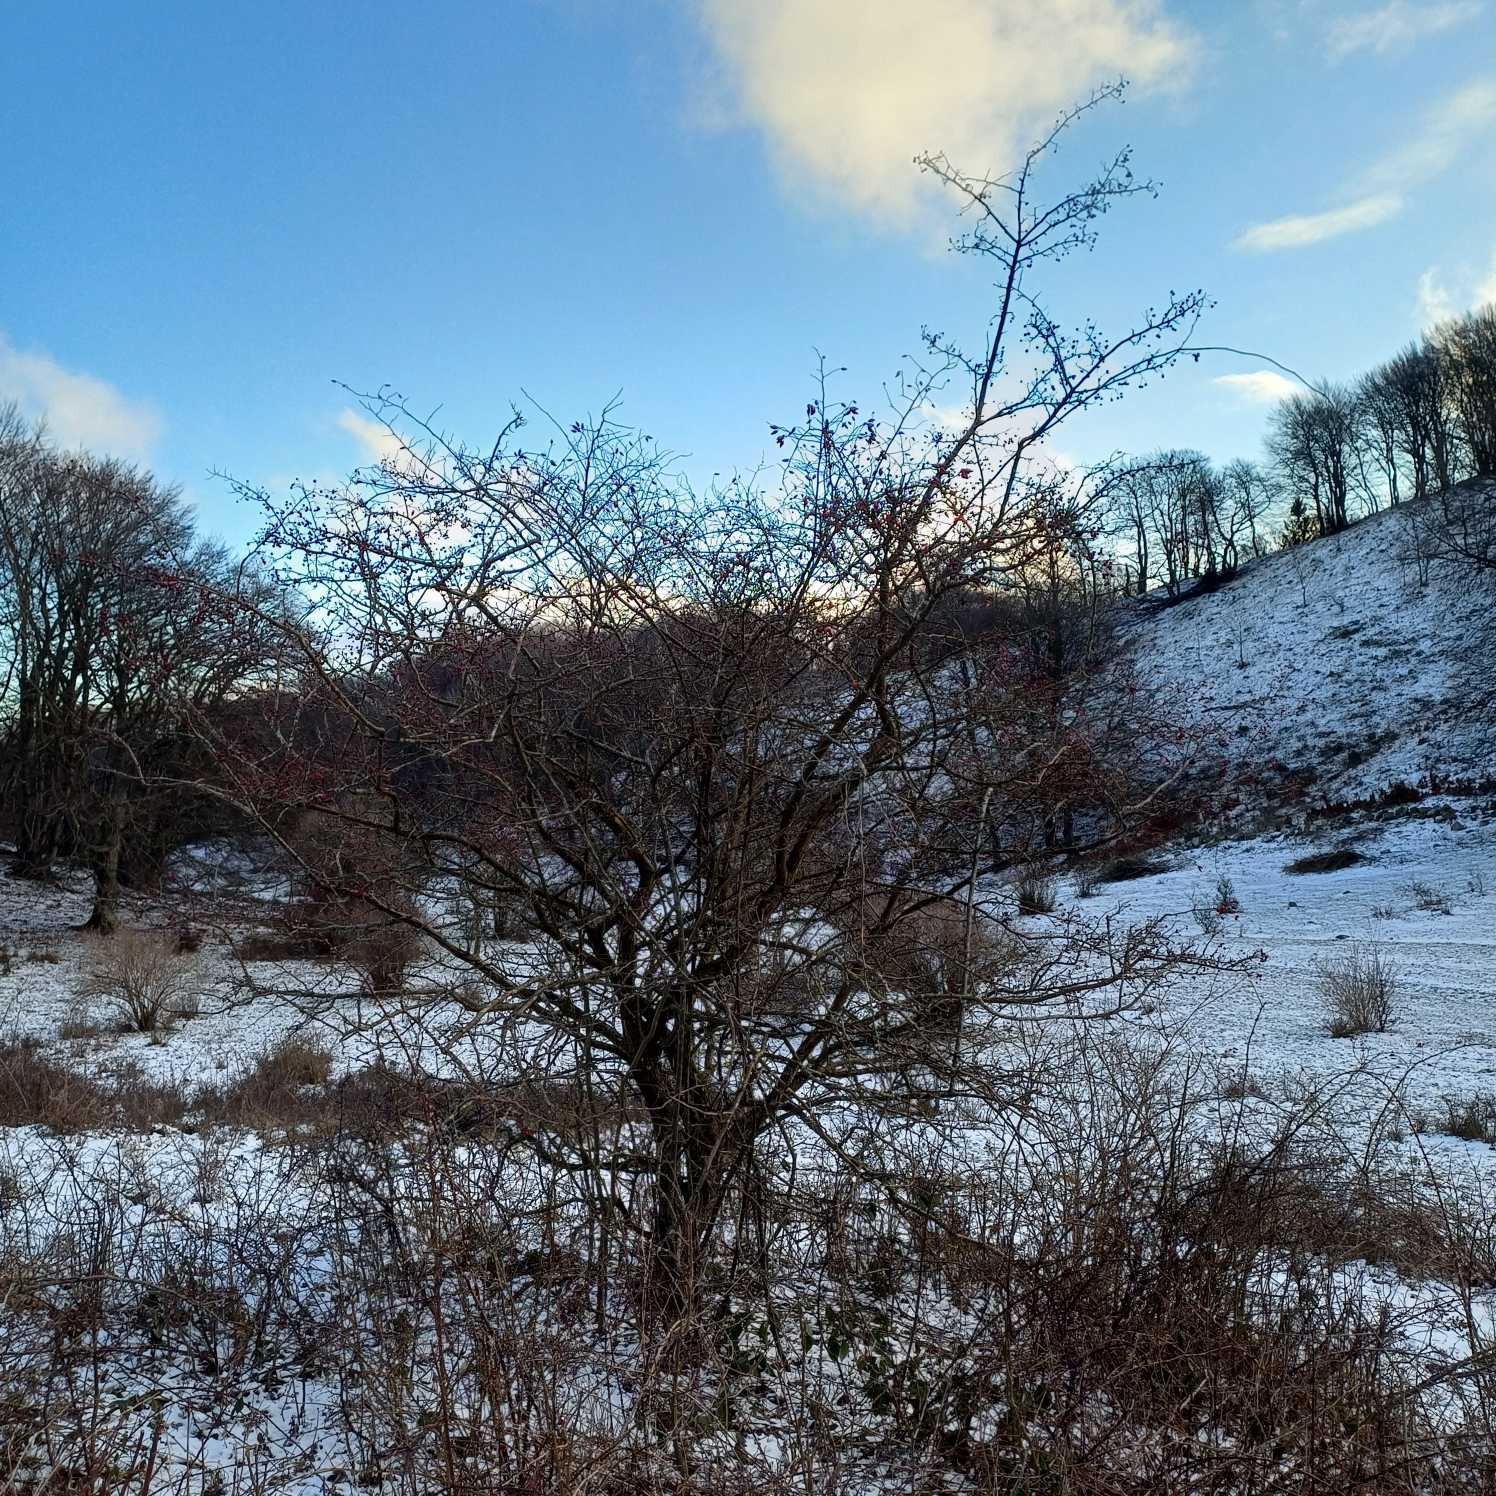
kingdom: Plantae
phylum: Tracheophyta
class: Magnoliopsida
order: Rosales
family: Rosaceae
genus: Crataegus
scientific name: Crataegus monogyna
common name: Engriflet hvidtjørn
